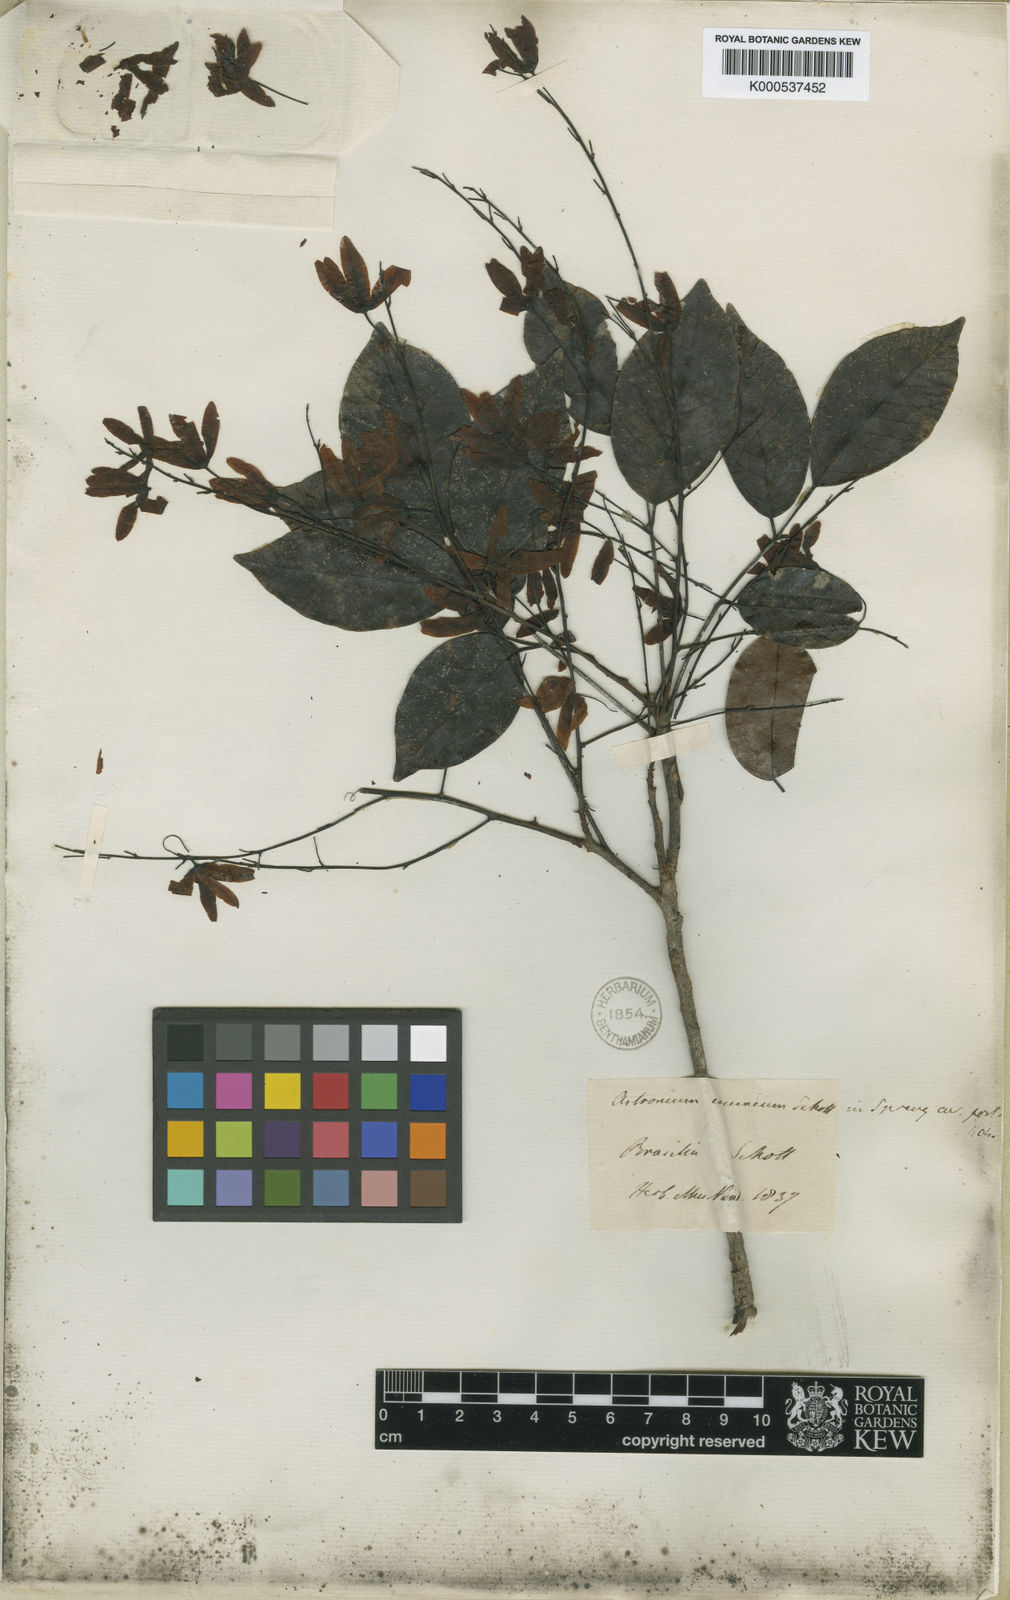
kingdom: Plantae
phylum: Tracheophyta
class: Magnoliopsida
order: Sapindales
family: Anacardiaceae
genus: Astronium
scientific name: Astronium concinnum
